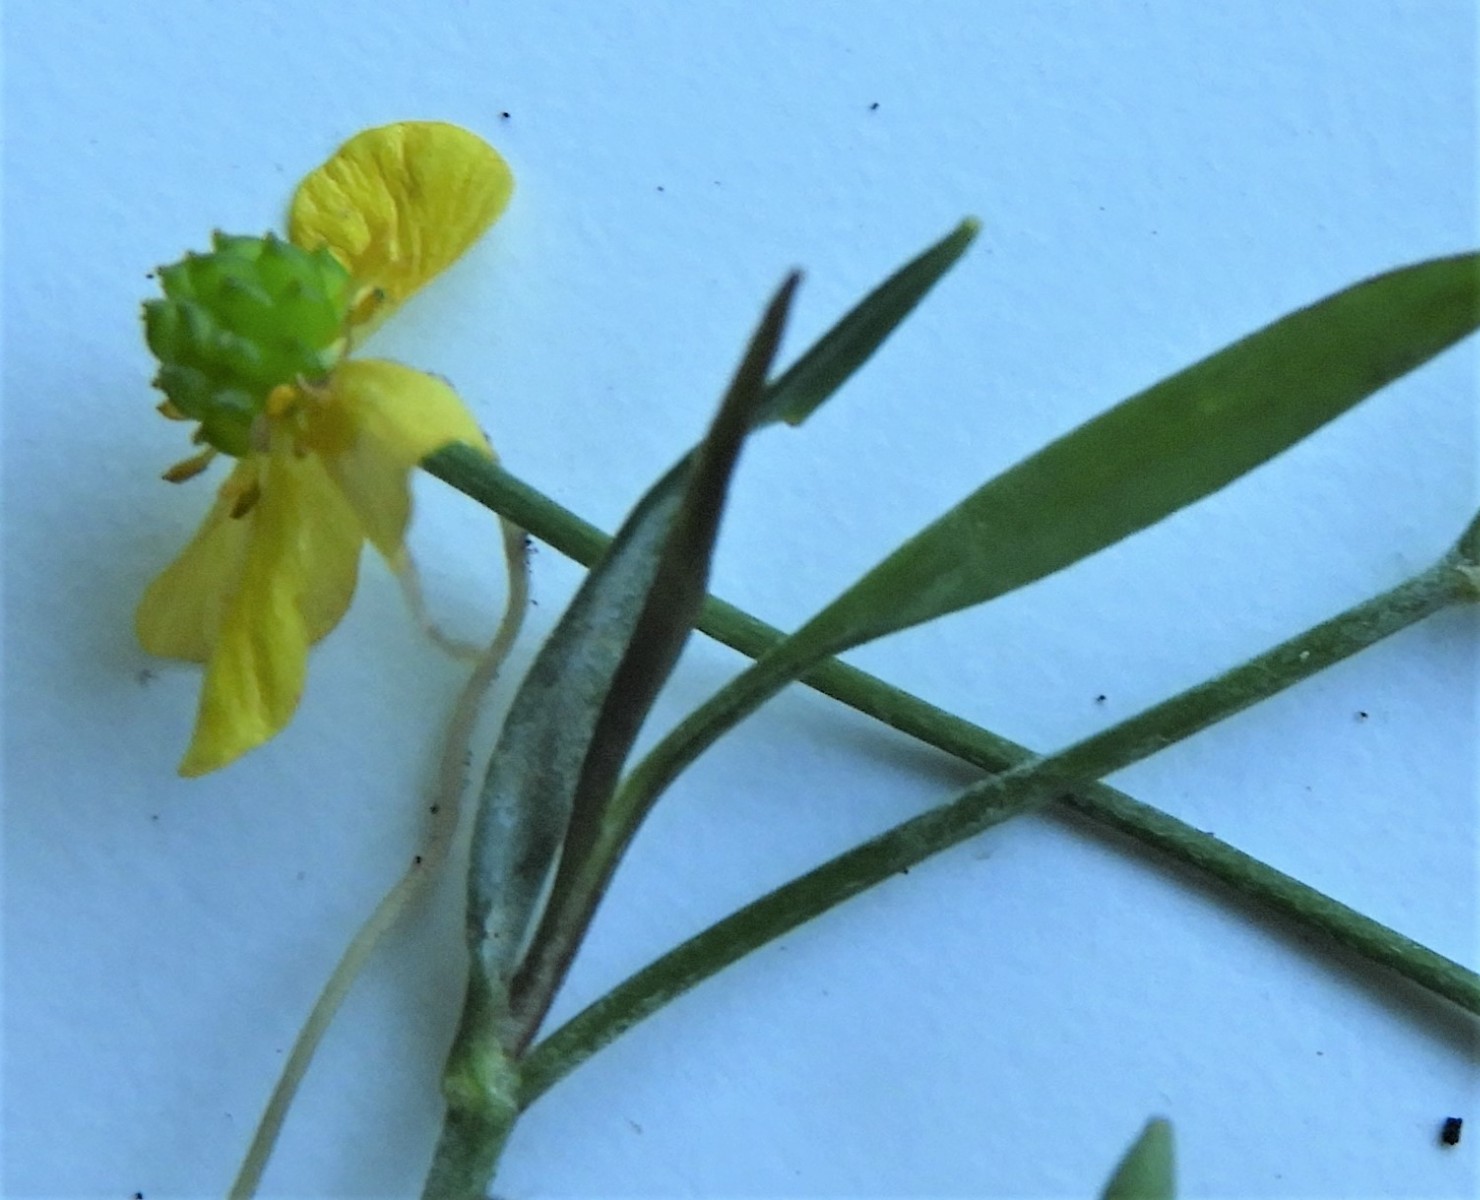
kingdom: Fungi
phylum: Ascomycota
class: Leotiomycetes
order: Helotiales
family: Erysiphaceae
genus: Erysiphe
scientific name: Erysiphe aquilegiae
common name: ranunkel-meldug
